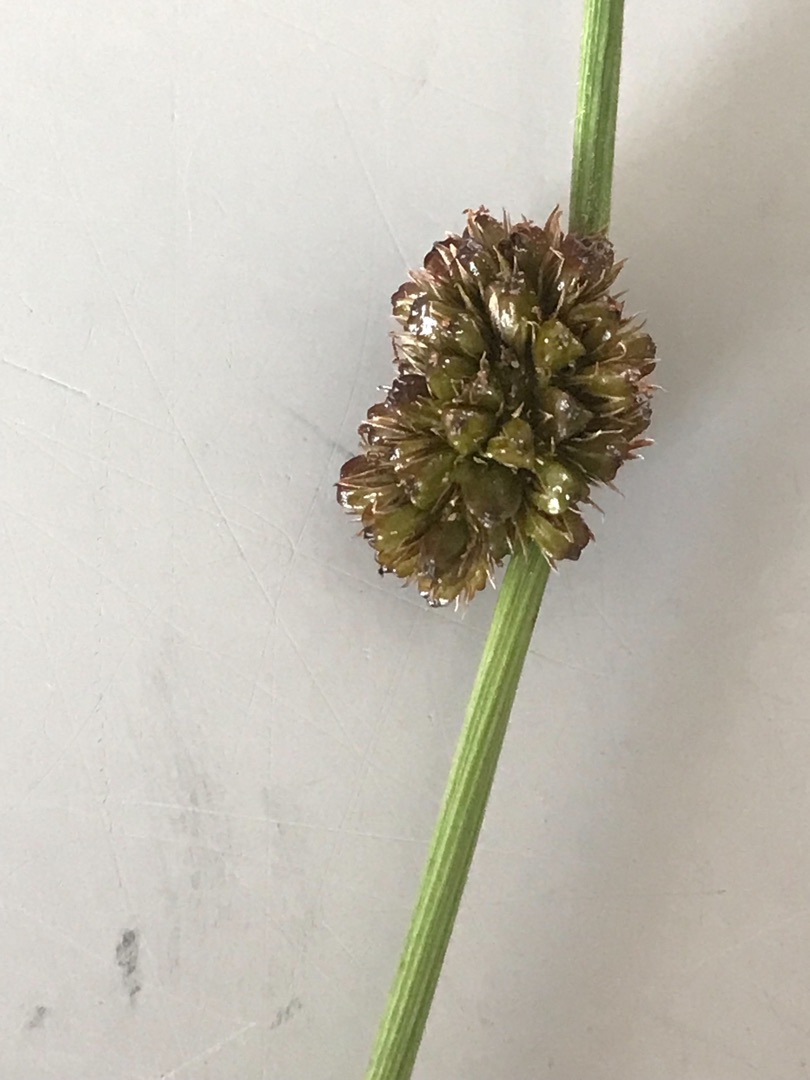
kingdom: Plantae
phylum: Tracheophyta
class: Liliopsida
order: Poales
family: Juncaceae
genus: Juncus
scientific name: Juncus conglomeratus
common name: Knop-siv
